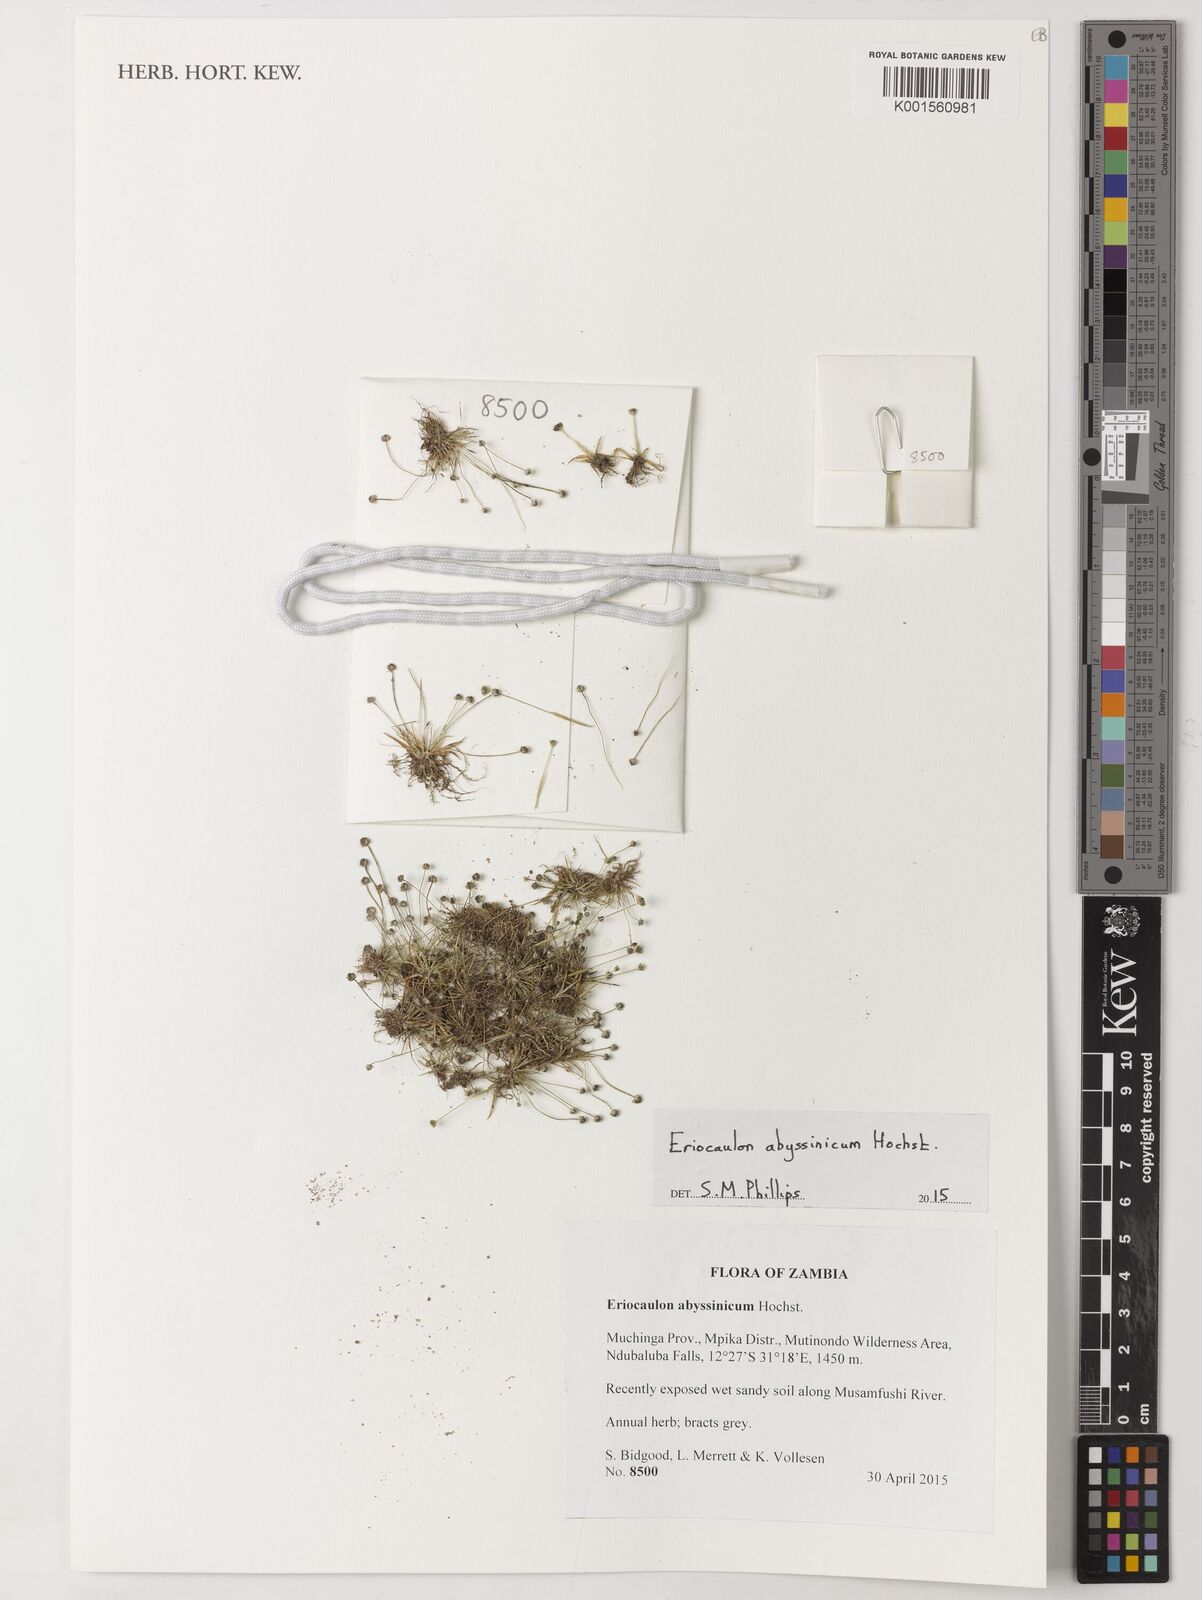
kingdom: Plantae
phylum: Tracheophyta
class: Liliopsida
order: Poales
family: Eriocaulaceae
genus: Eriocaulon
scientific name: Eriocaulon abyssinicum
